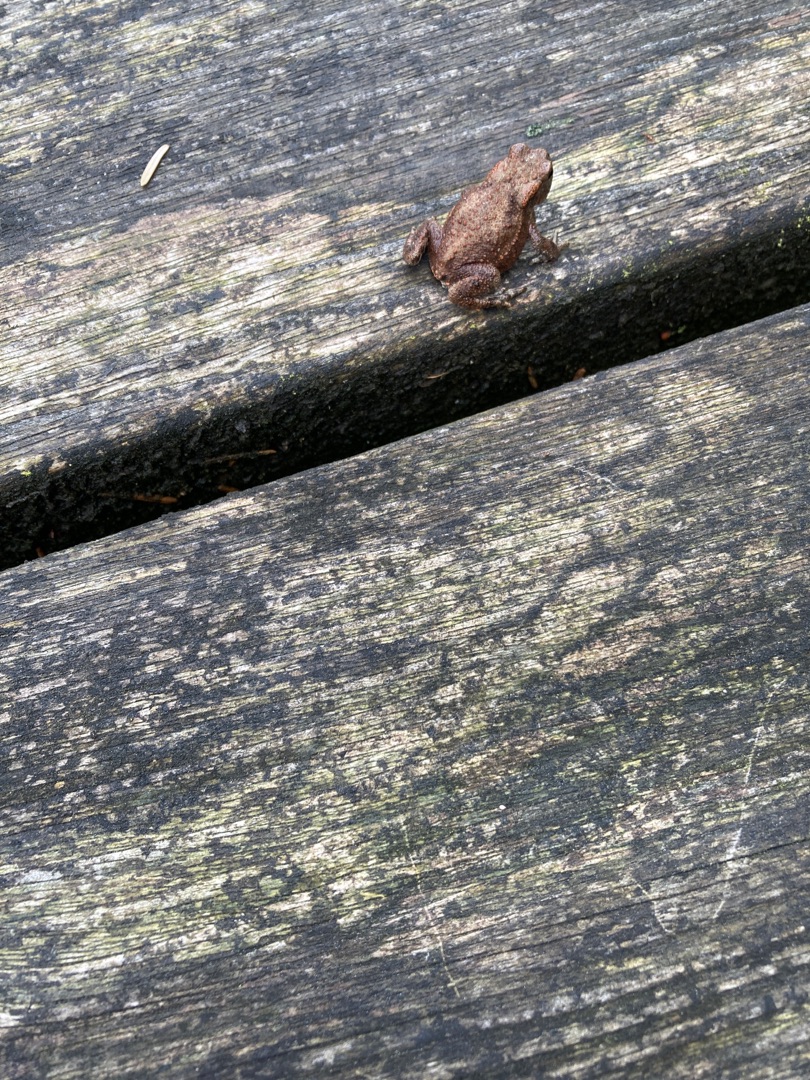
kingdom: Animalia
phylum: Chordata
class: Amphibia
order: Anura
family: Bufonidae
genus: Bufo
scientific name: Bufo bufo
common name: Skrubtudse
